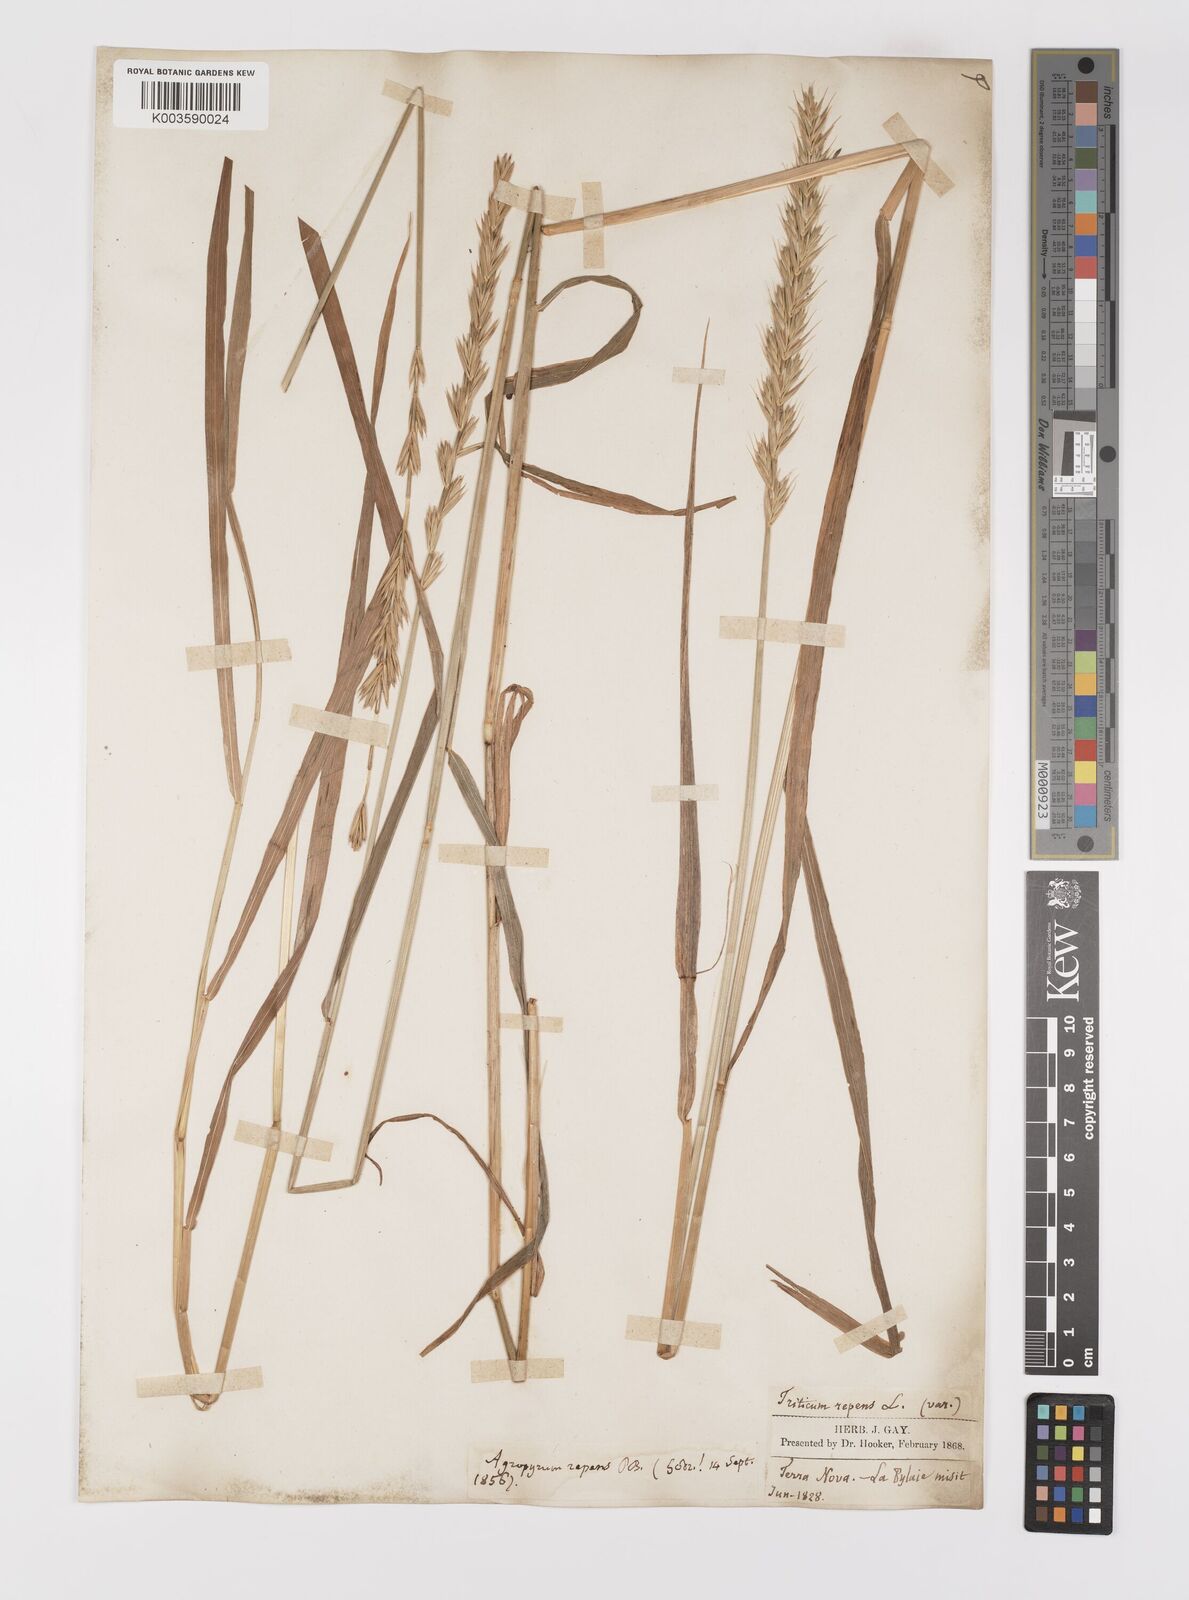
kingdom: Plantae
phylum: Tracheophyta
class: Liliopsida
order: Poales
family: Poaceae
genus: Elymus
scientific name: Elymus repens
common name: Quackgrass
